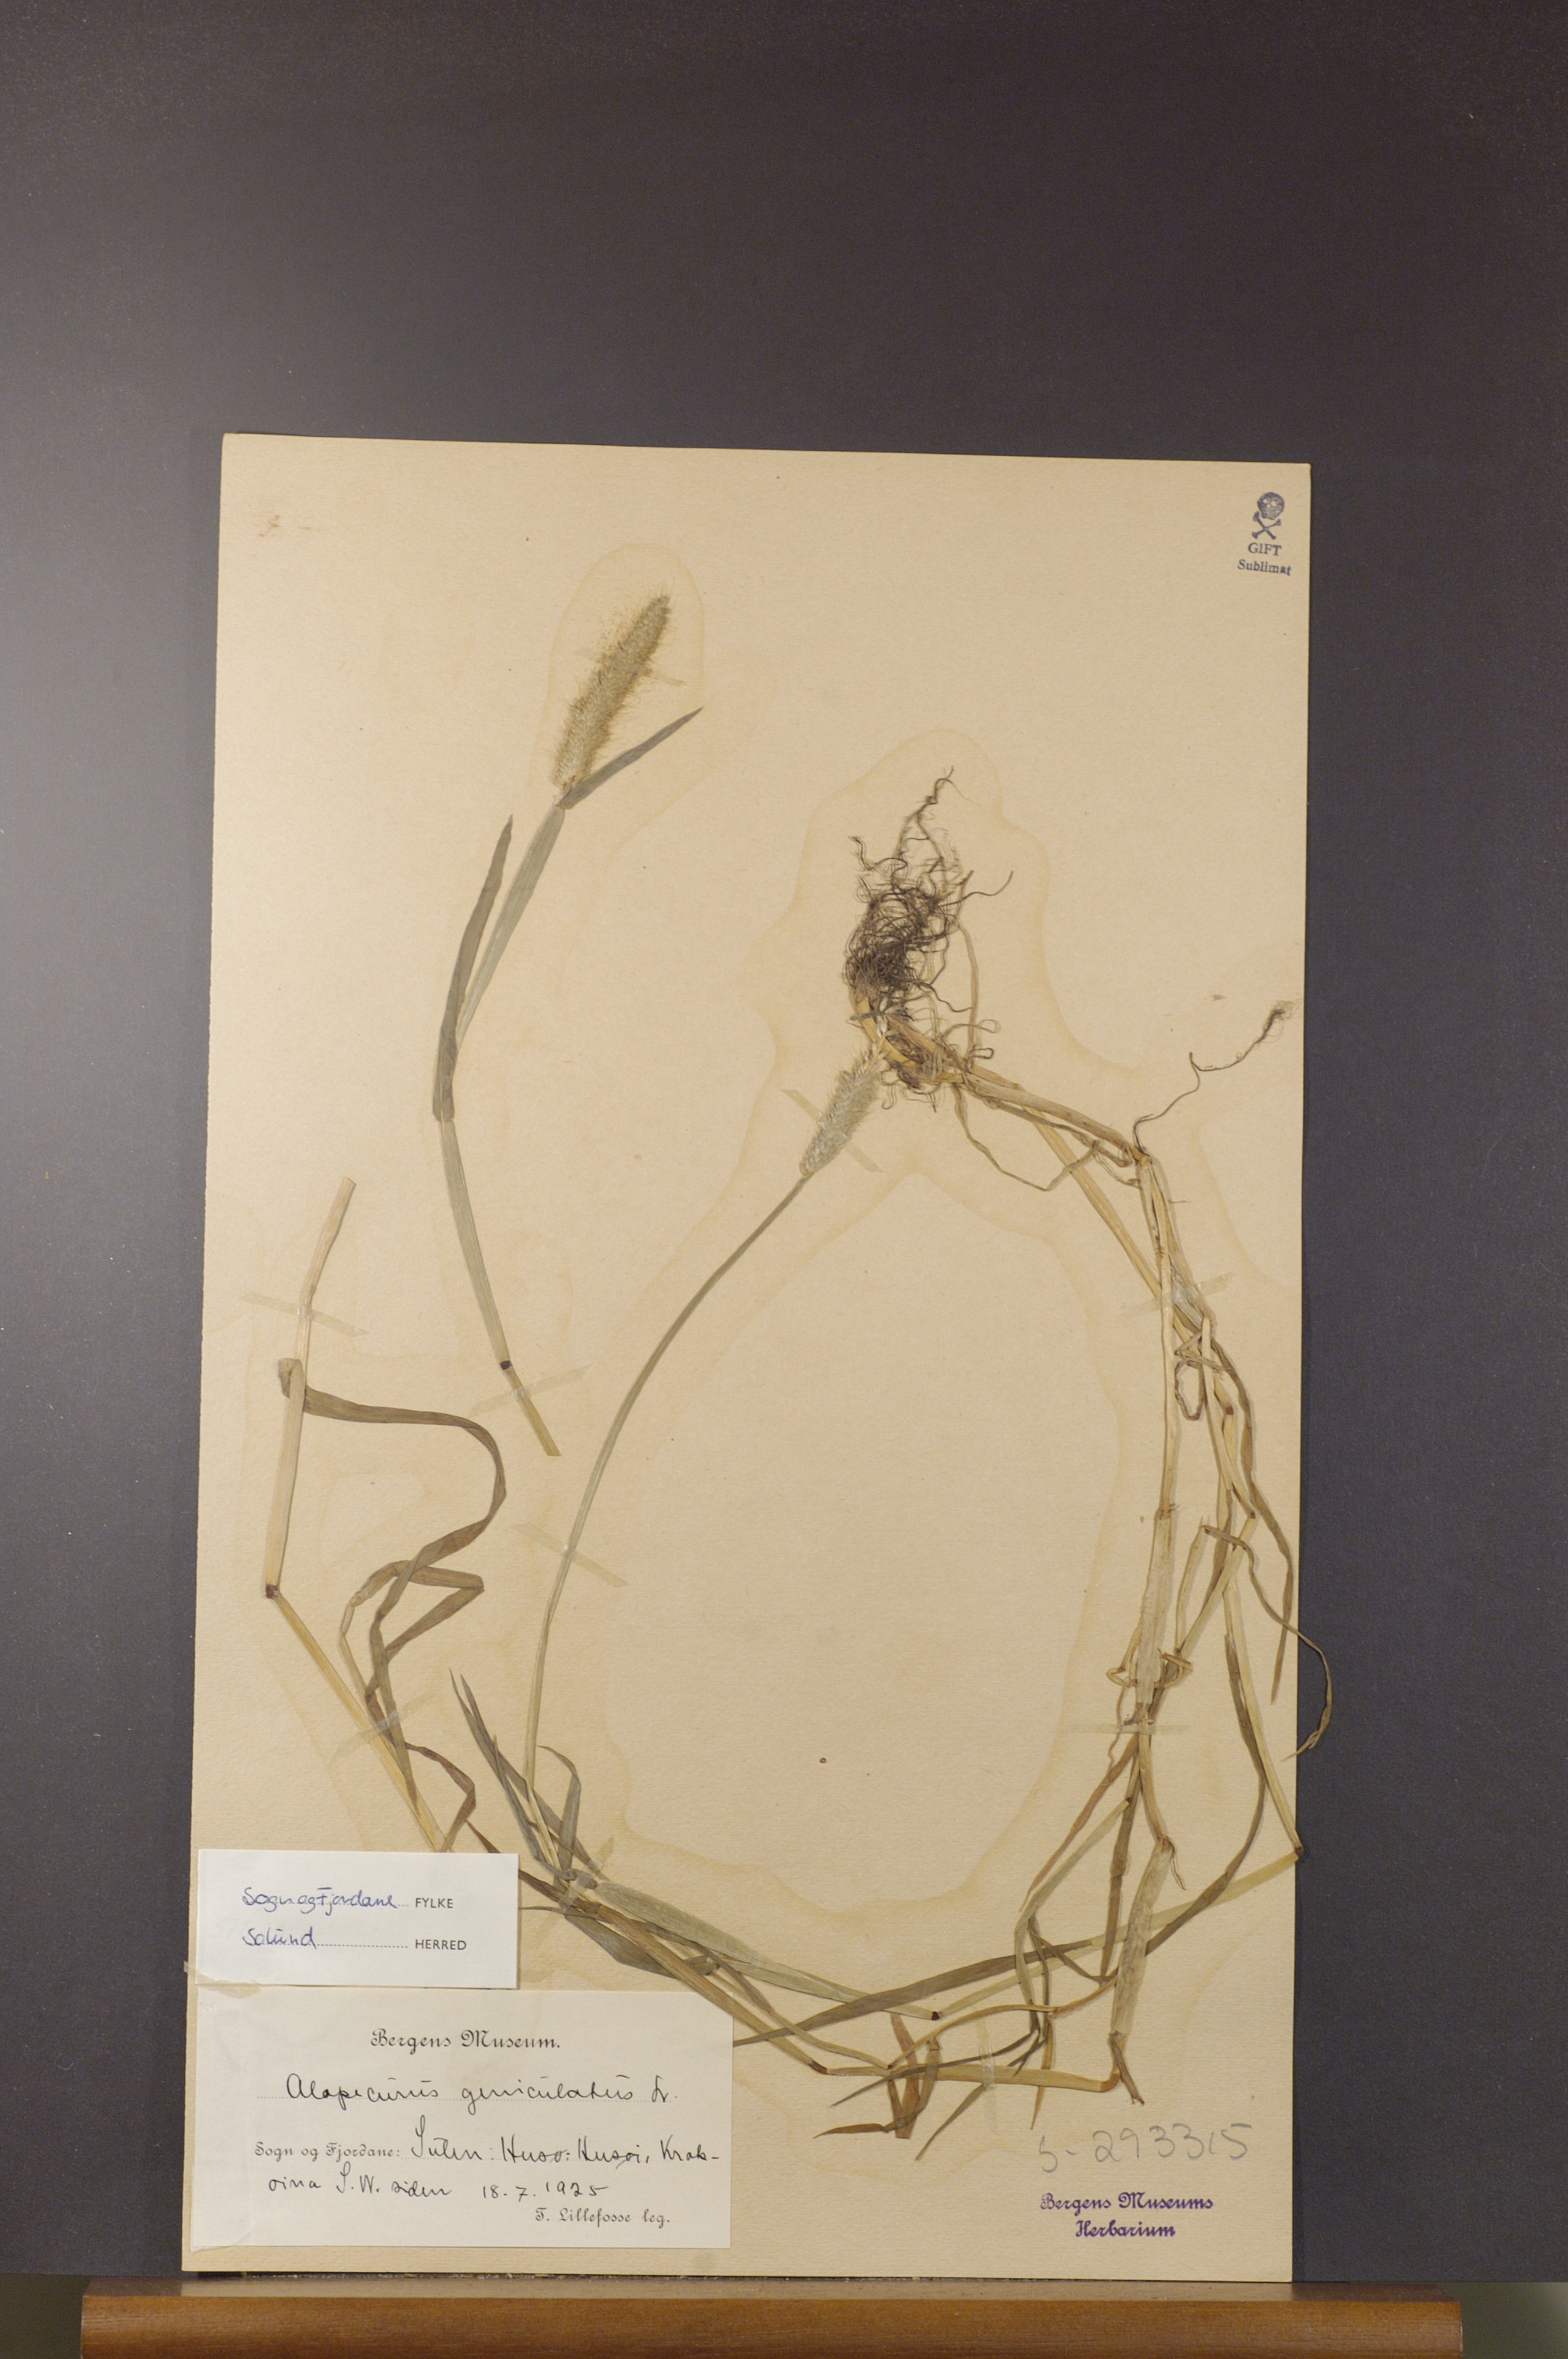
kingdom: Plantae
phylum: Tracheophyta
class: Liliopsida
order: Poales
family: Poaceae
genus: Alopecurus
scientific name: Alopecurus geniculatus
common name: Water foxtail
